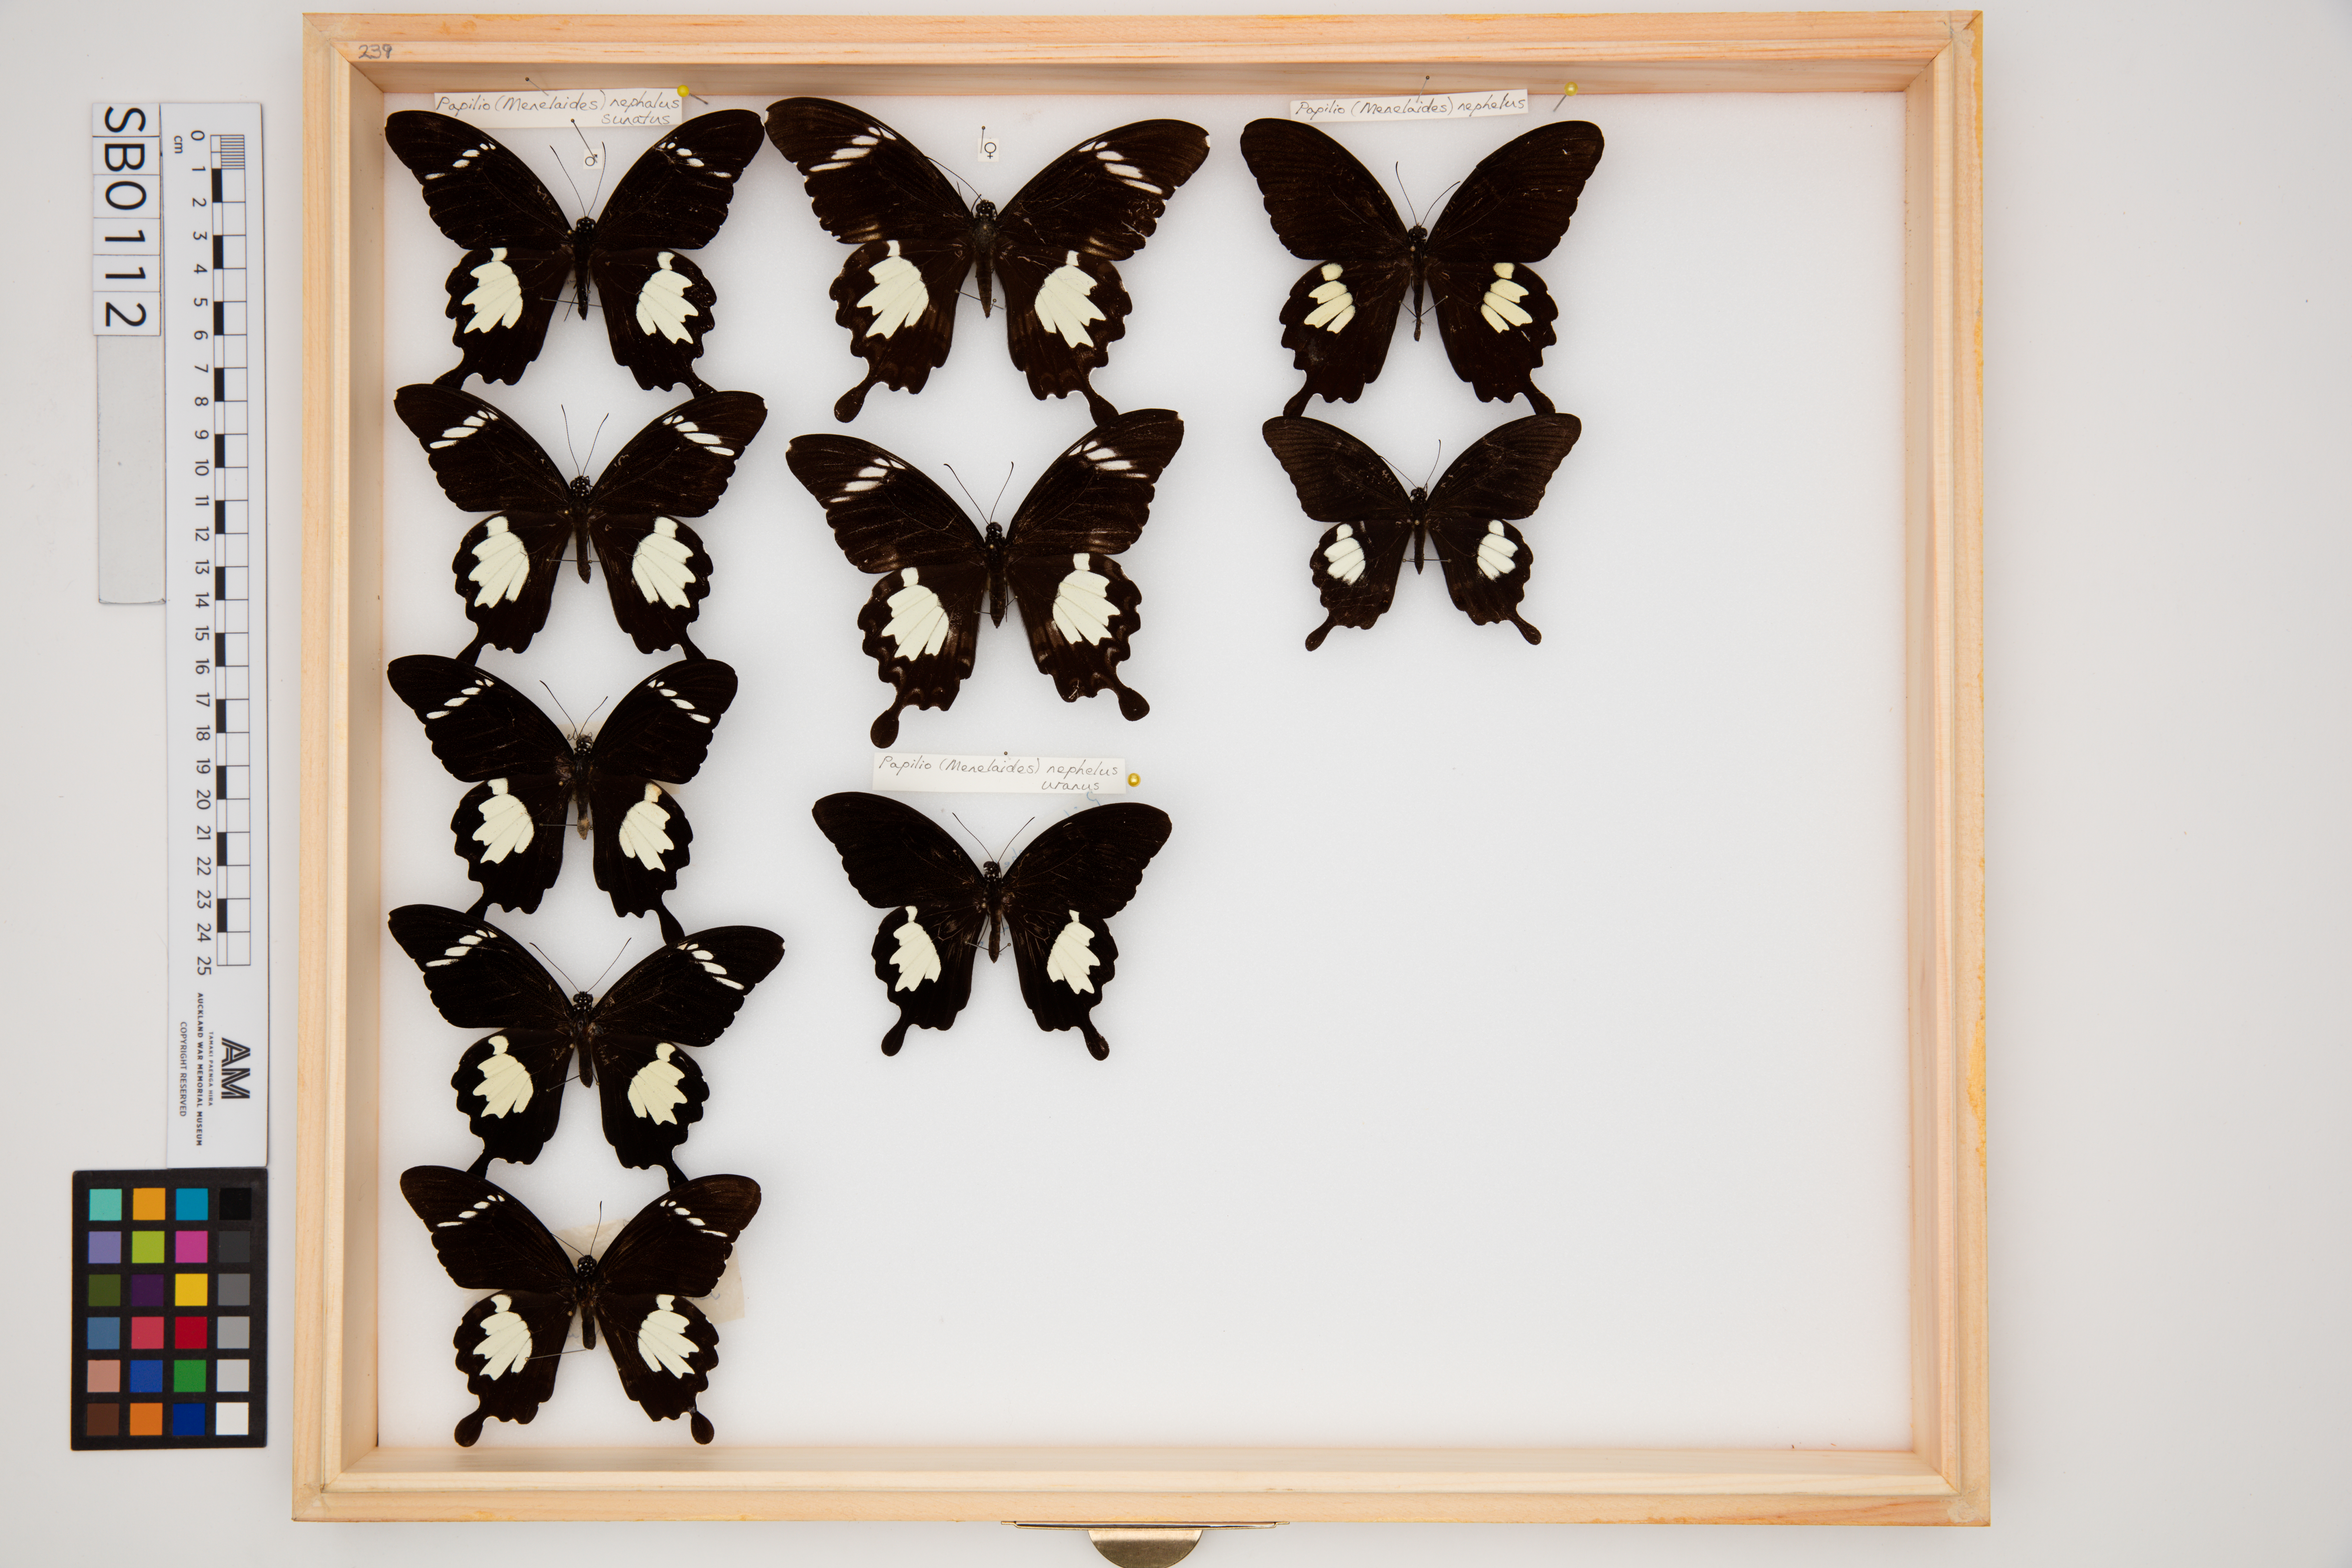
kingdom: Animalia
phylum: Arthropoda
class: Insecta
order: Lepidoptera
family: Papilionidae
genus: Papilio
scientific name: Papilio nephelus
